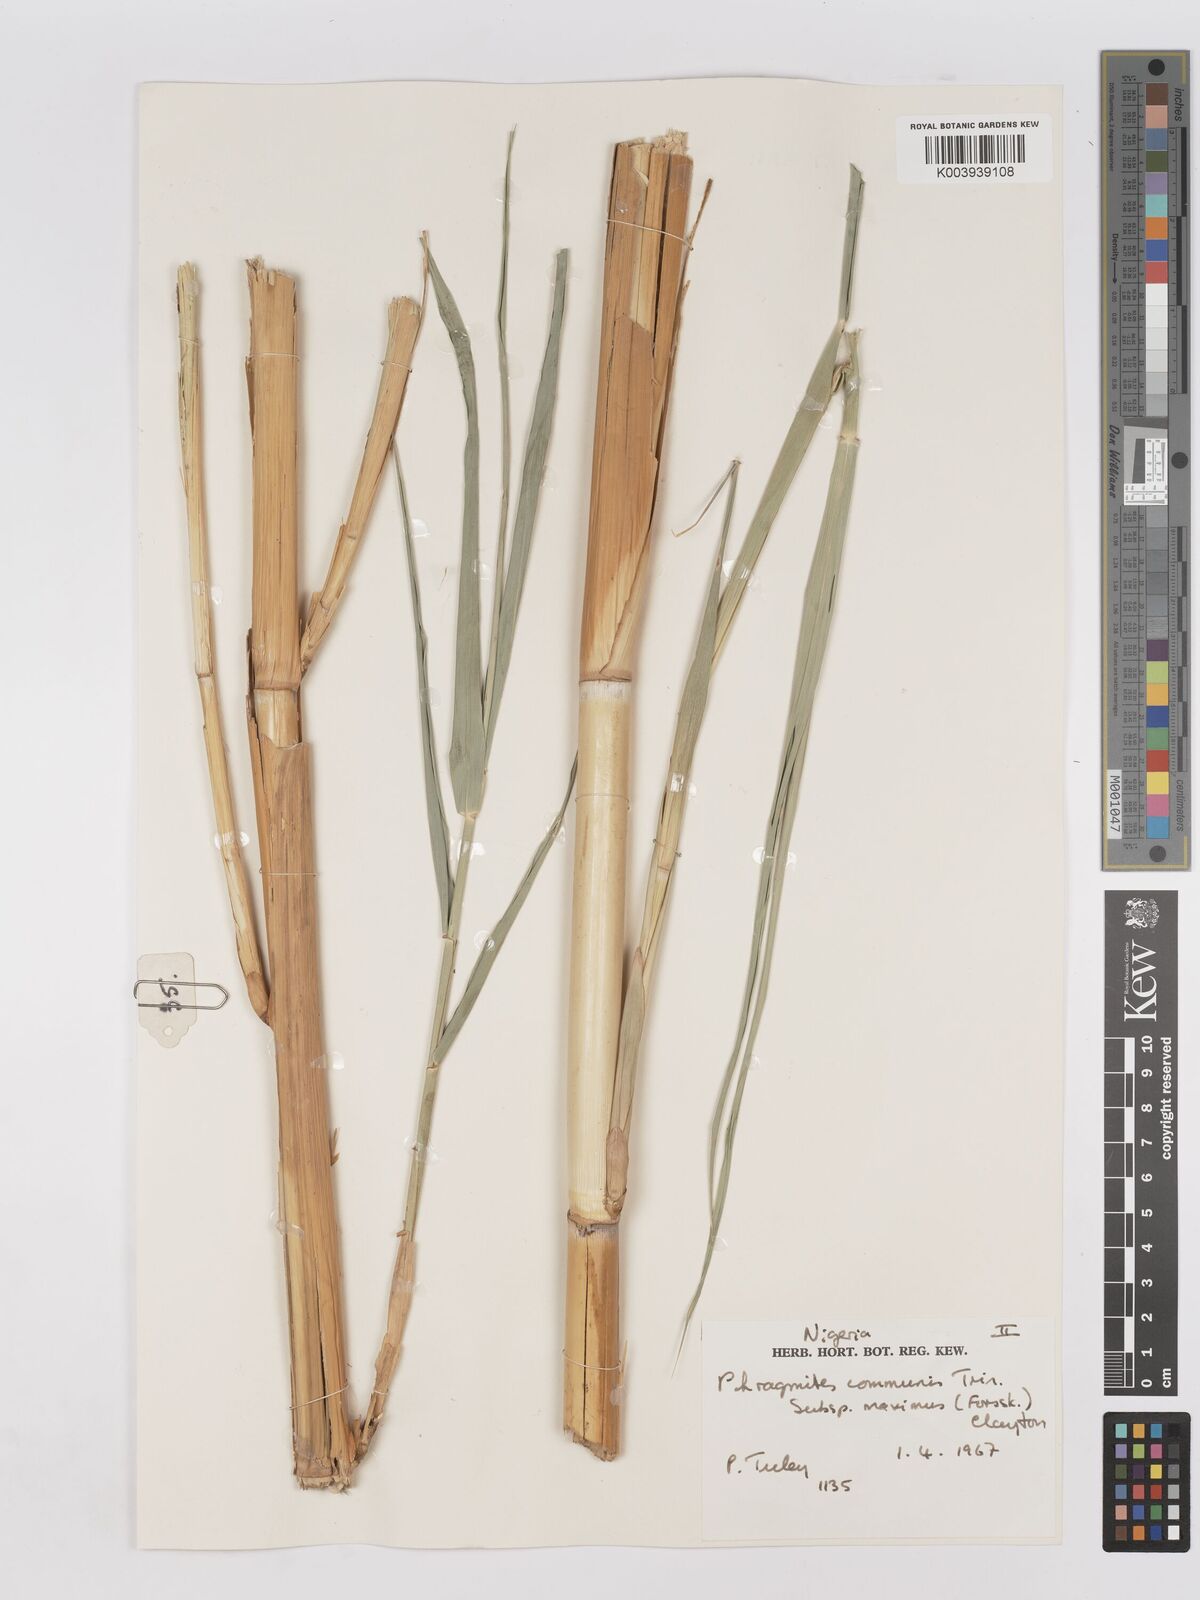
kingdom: Plantae
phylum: Tracheophyta
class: Liliopsida
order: Poales
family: Poaceae
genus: Phragmites
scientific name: Phragmites australis
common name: Common reed
